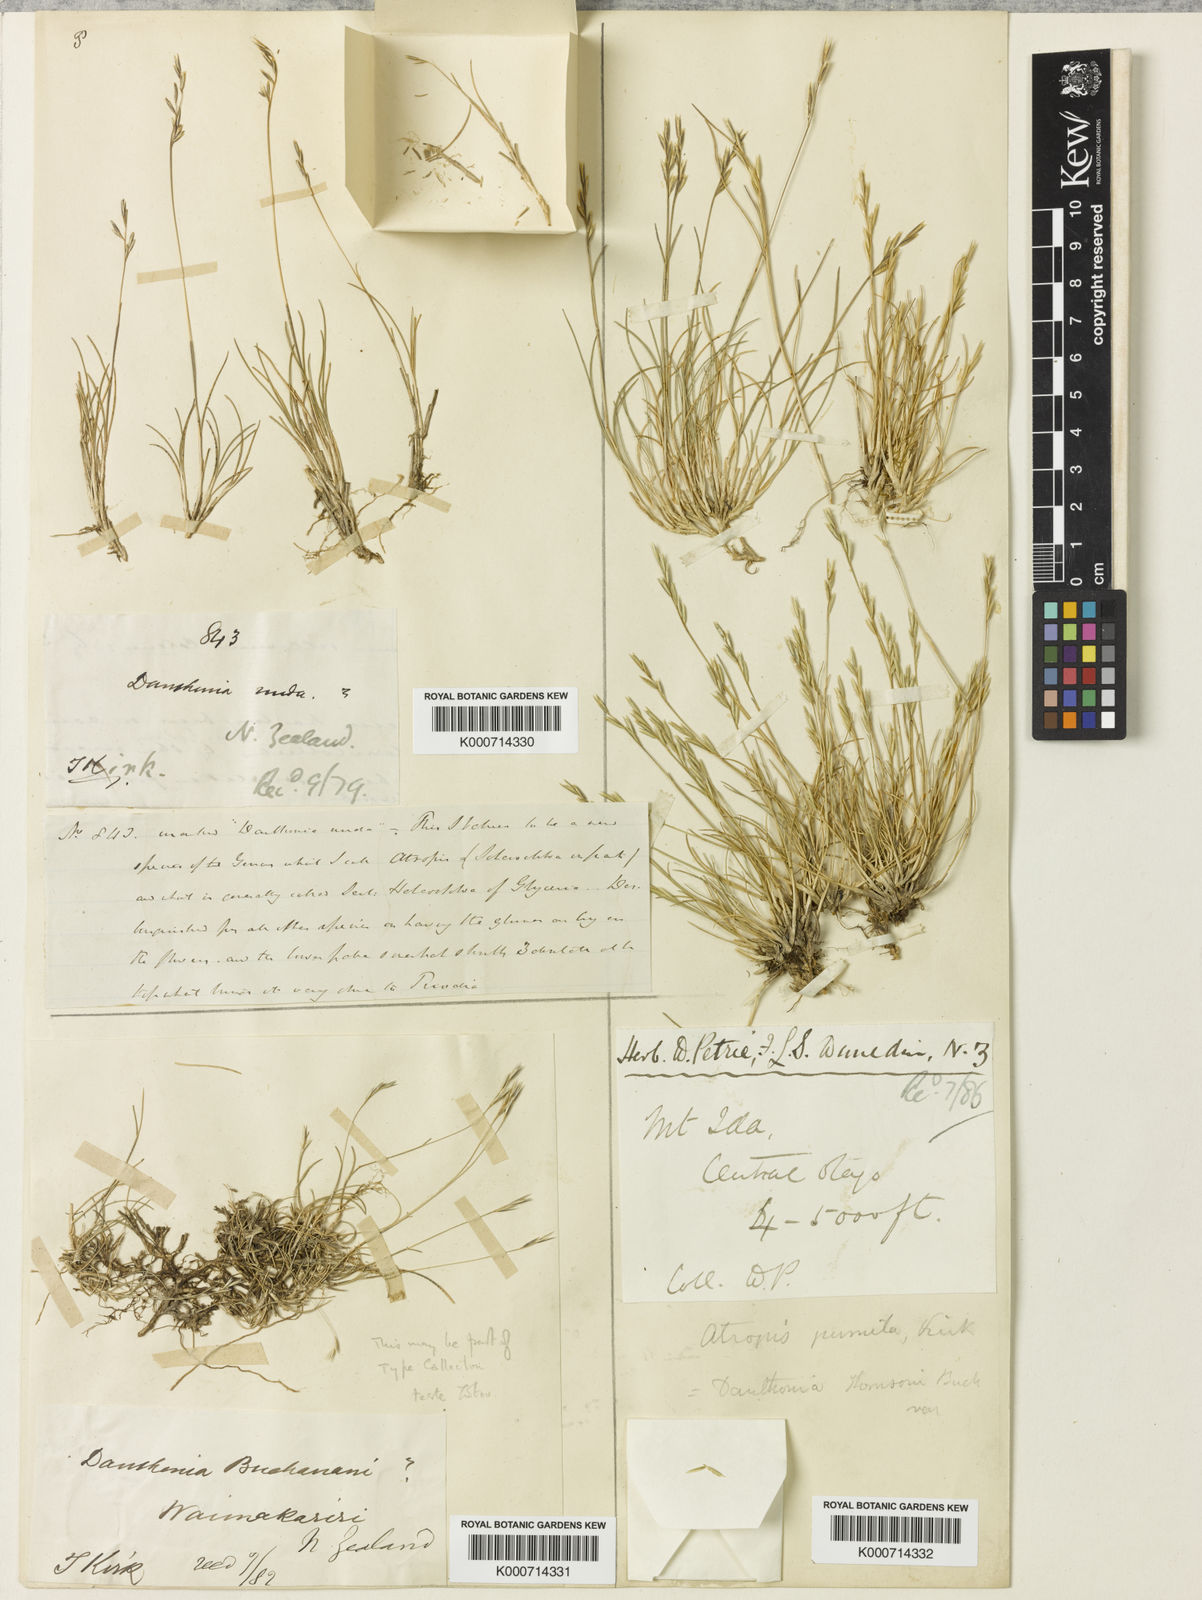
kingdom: Plantae
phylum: Tracheophyta
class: Liliopsida
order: Poales
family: Poaceae
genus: Rytidosperma
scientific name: Rytidosperma pumilum
